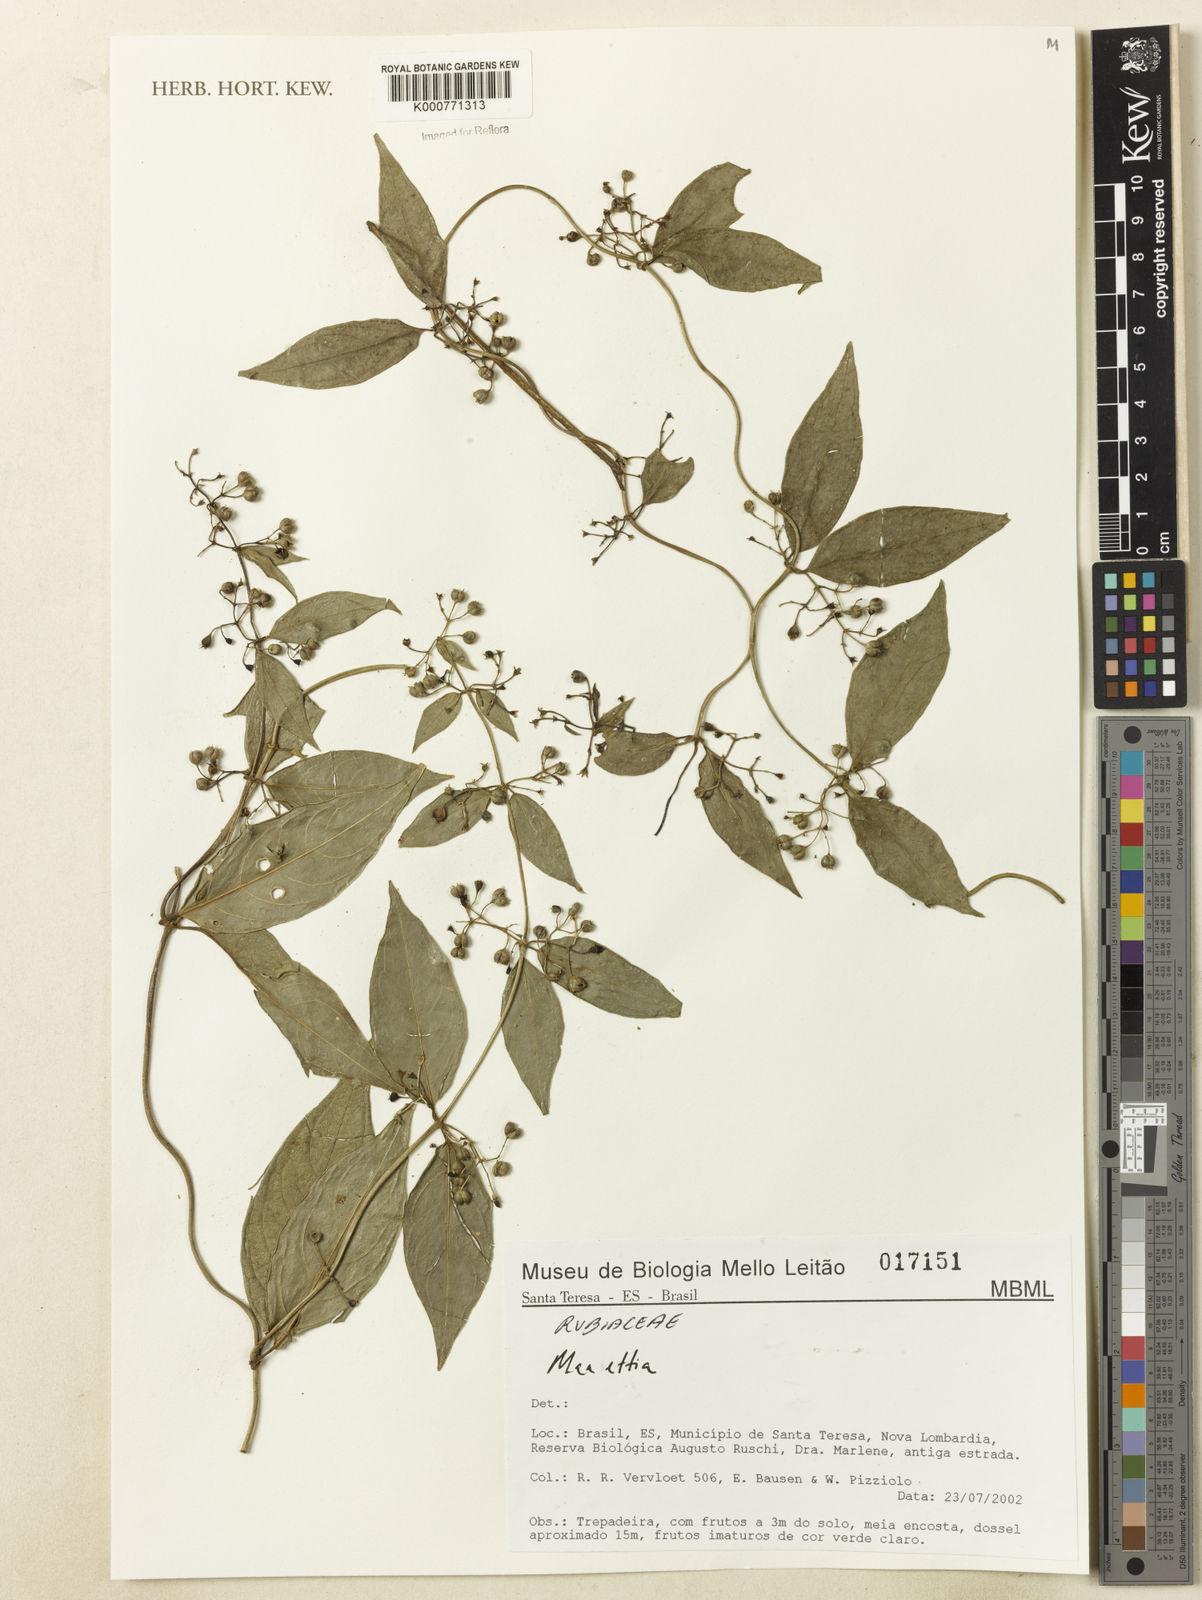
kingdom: Plantae
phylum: Tracheophyta
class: Magnoliopsida
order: Gentianales
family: Rubiaceae
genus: Manettia
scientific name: Manettia
